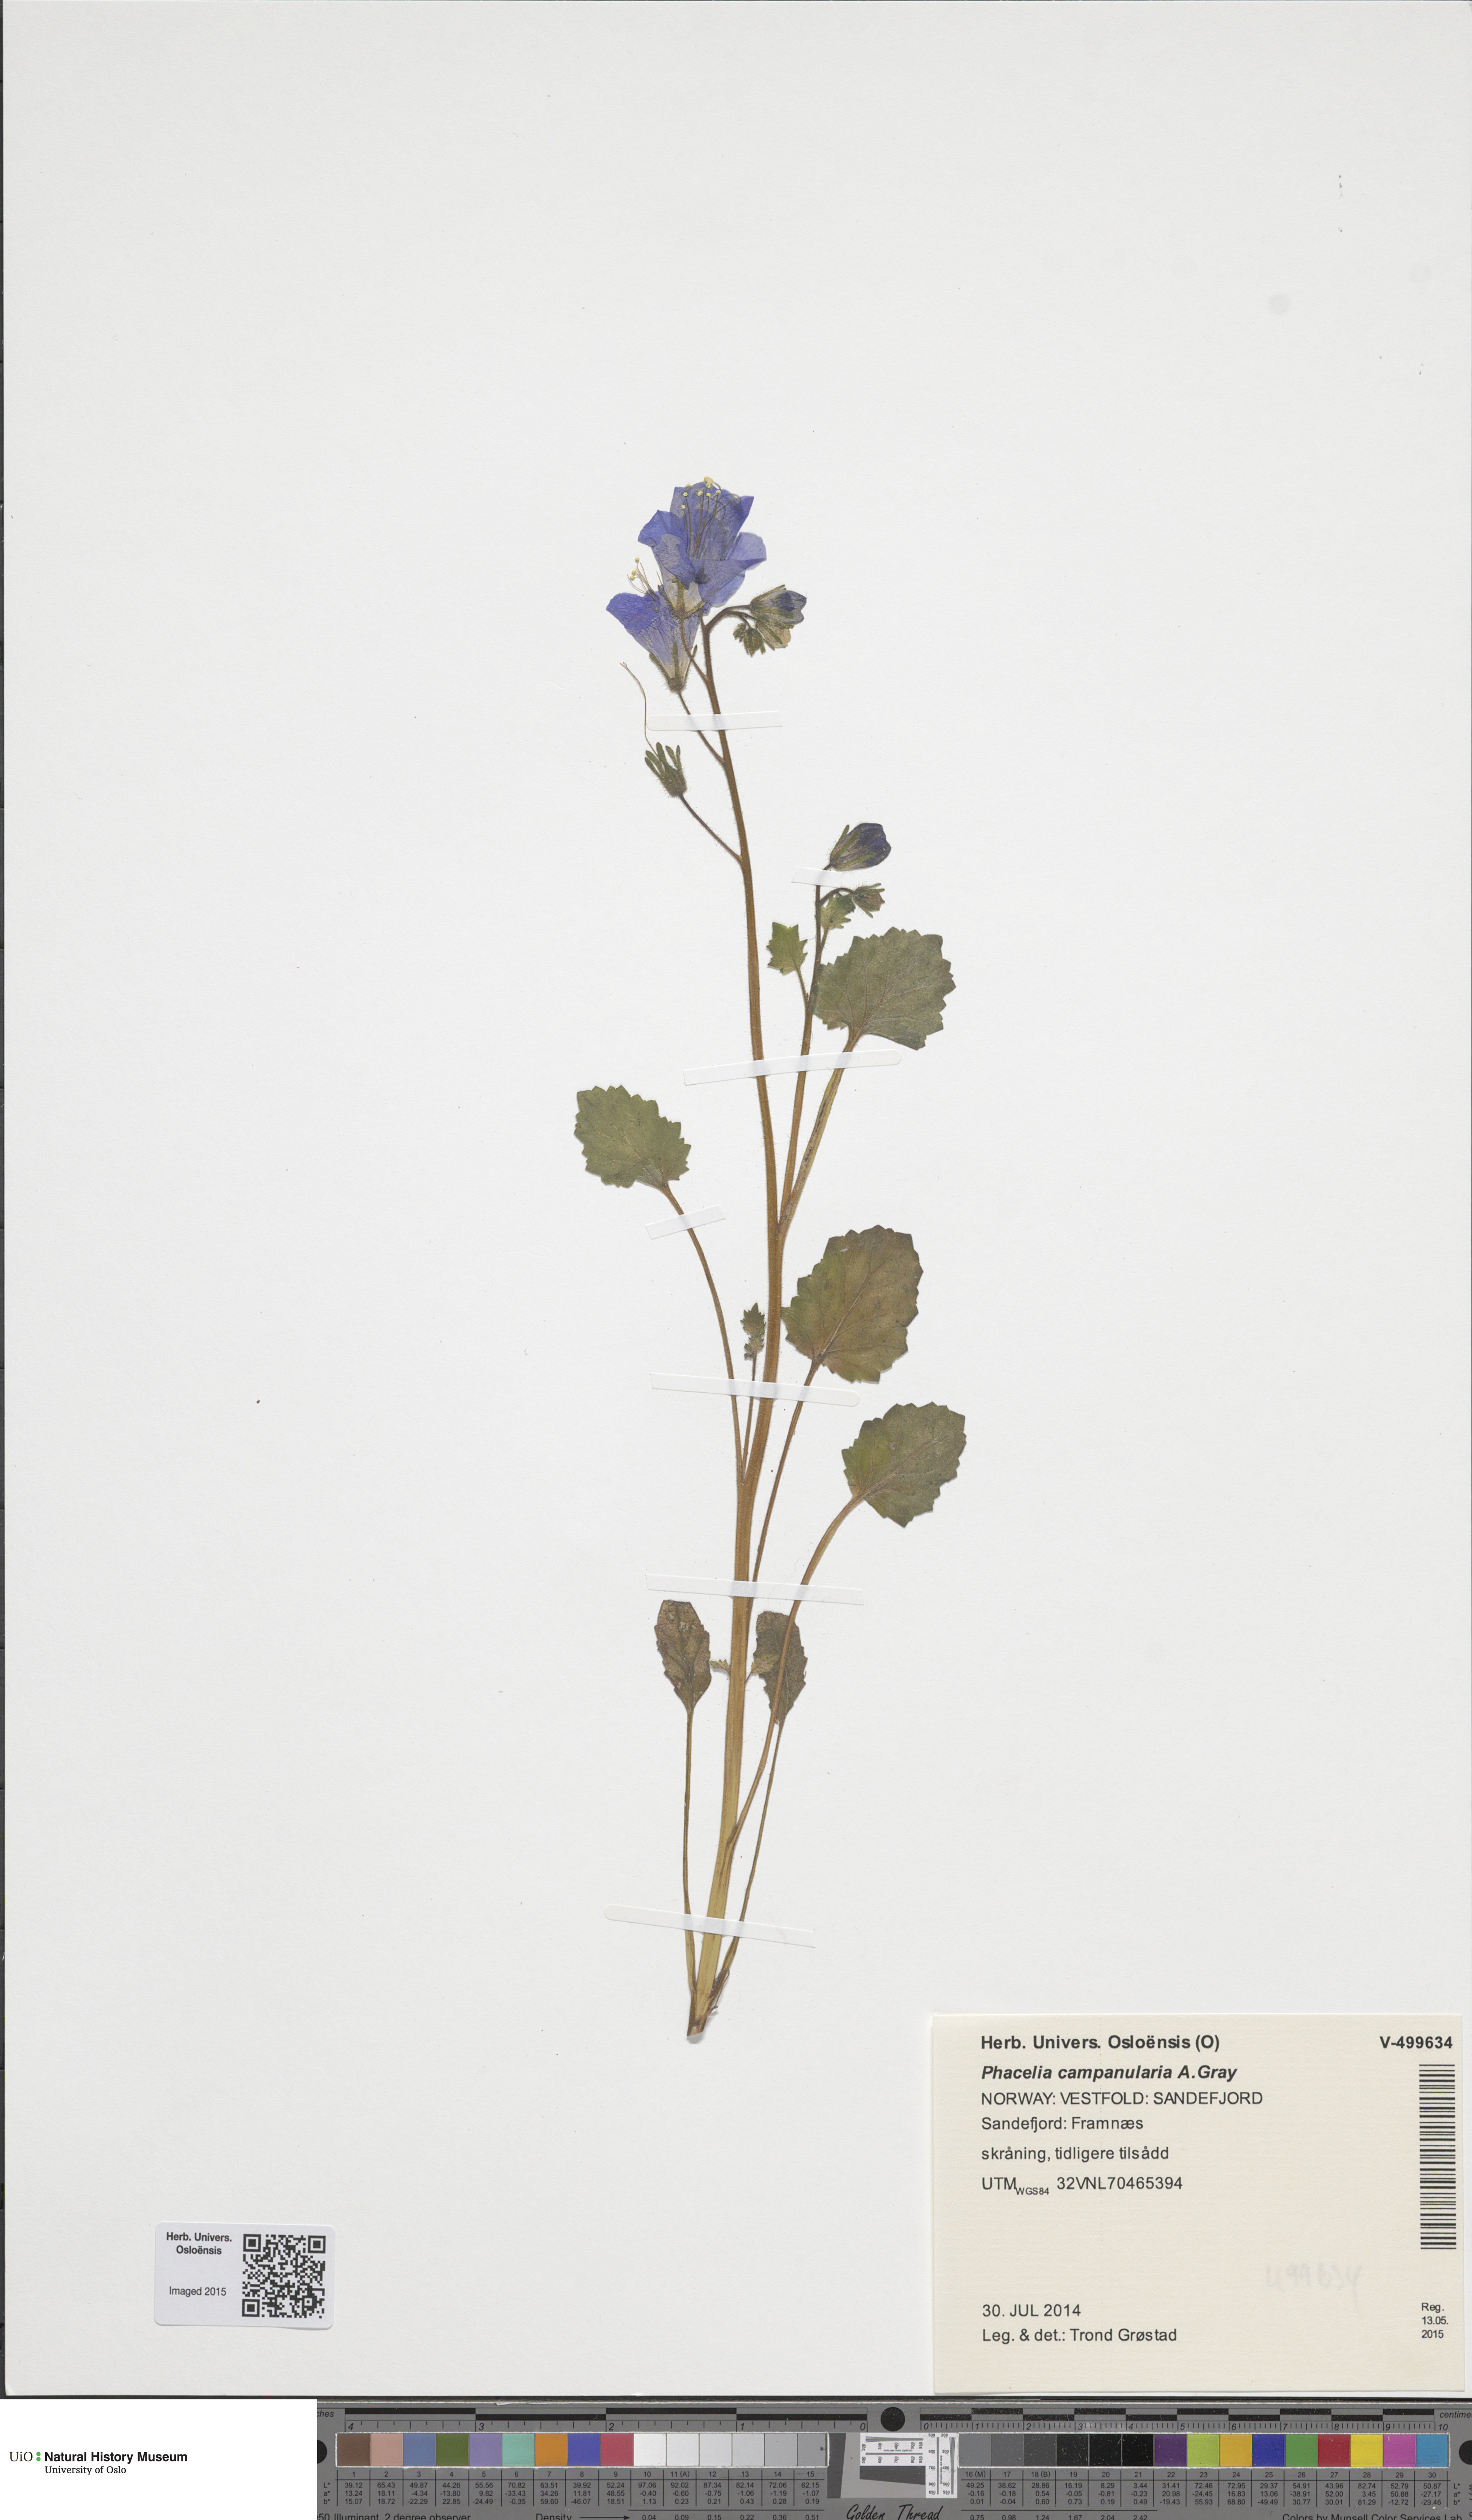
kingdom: Plantae
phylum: Tracheophyta
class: Magnoliopsida
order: Boraginales
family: Hydrophyllaceae
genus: Phacelia
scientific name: Phacelia campanularia
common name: California bluebell
